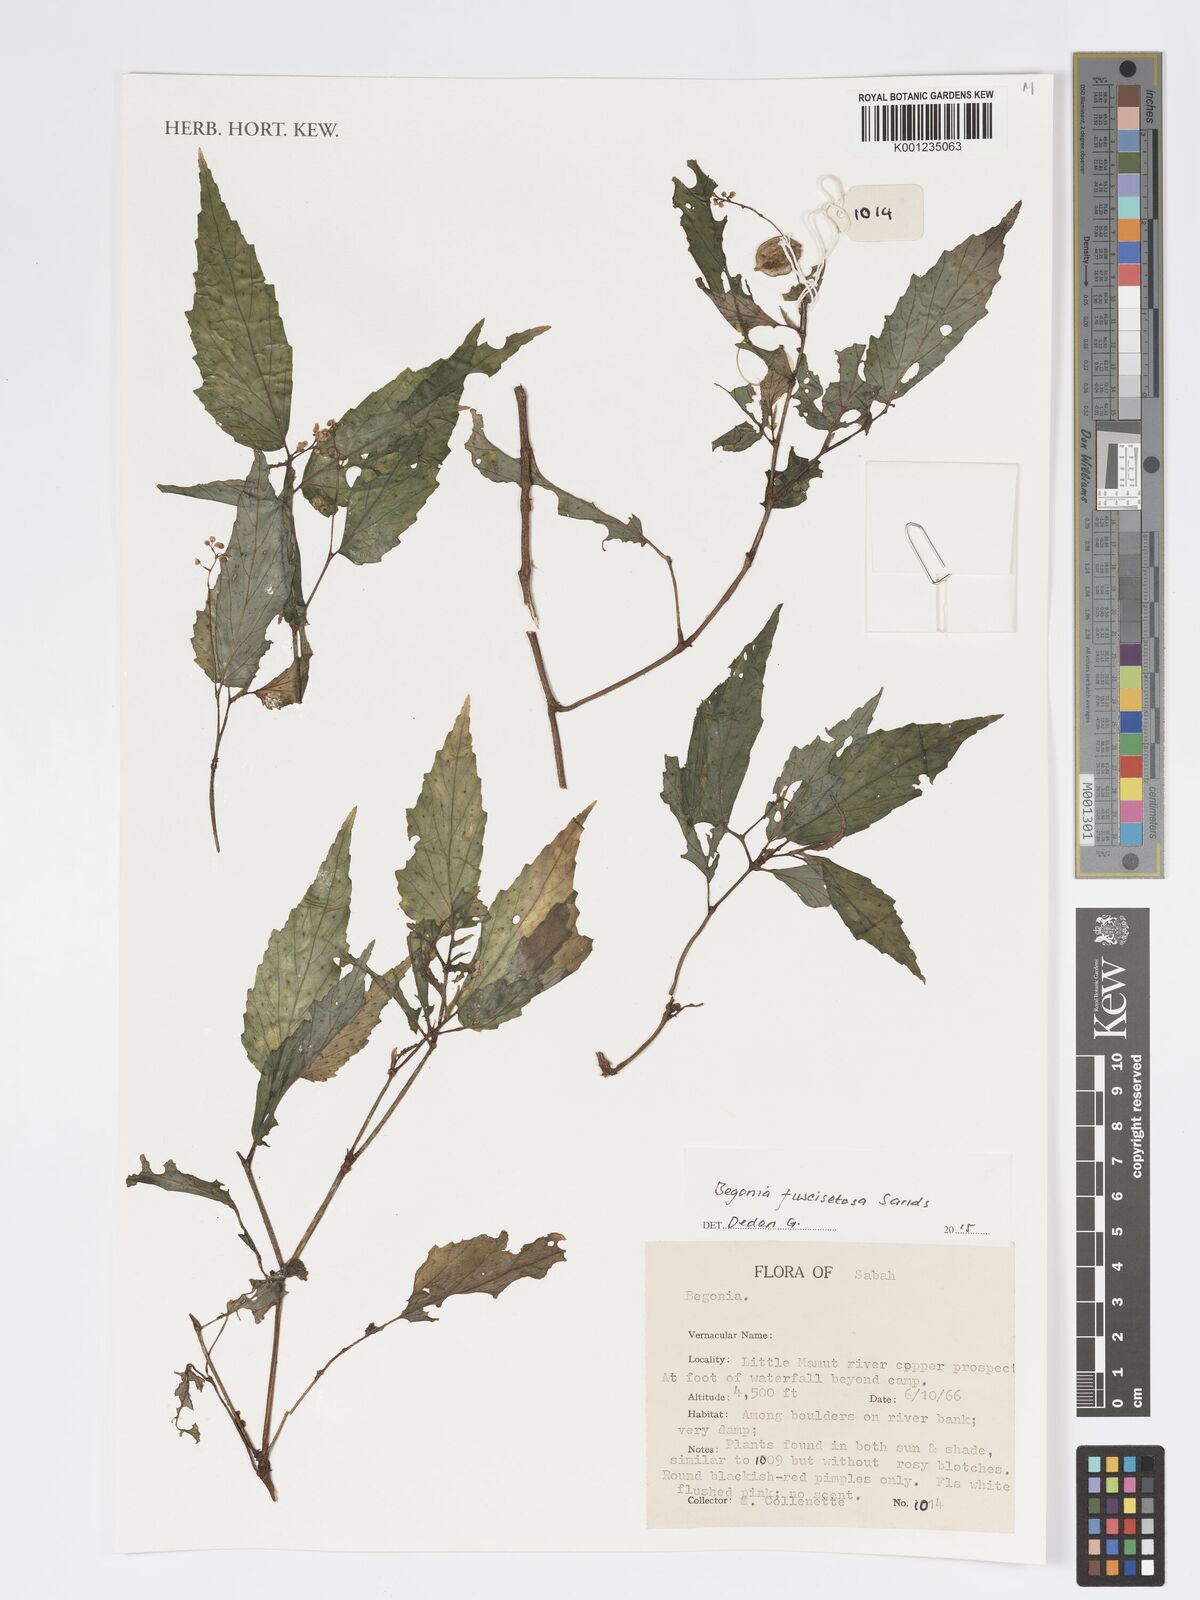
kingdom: Plantae
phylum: Tracheophyta
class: Magnoliopsida
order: Cucurbitales
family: Begoniaceae
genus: Begonia
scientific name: Begonia fuscisetosa
